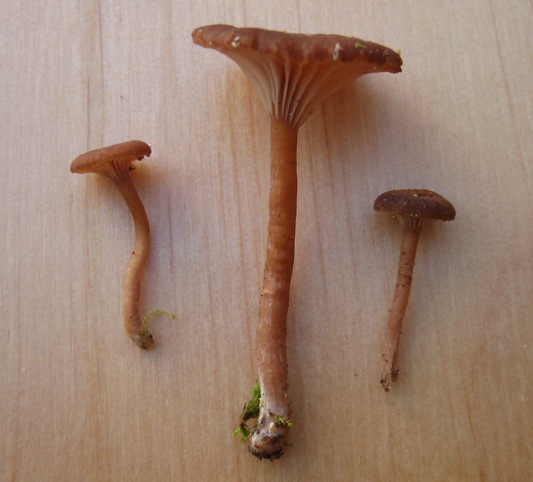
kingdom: Fungi
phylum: Basidiomycota
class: Agaricomycetes
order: Agaricales
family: Tricholomataceae
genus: Omphalina
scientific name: Omphalina pyxidata
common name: rødbrun navlehat
